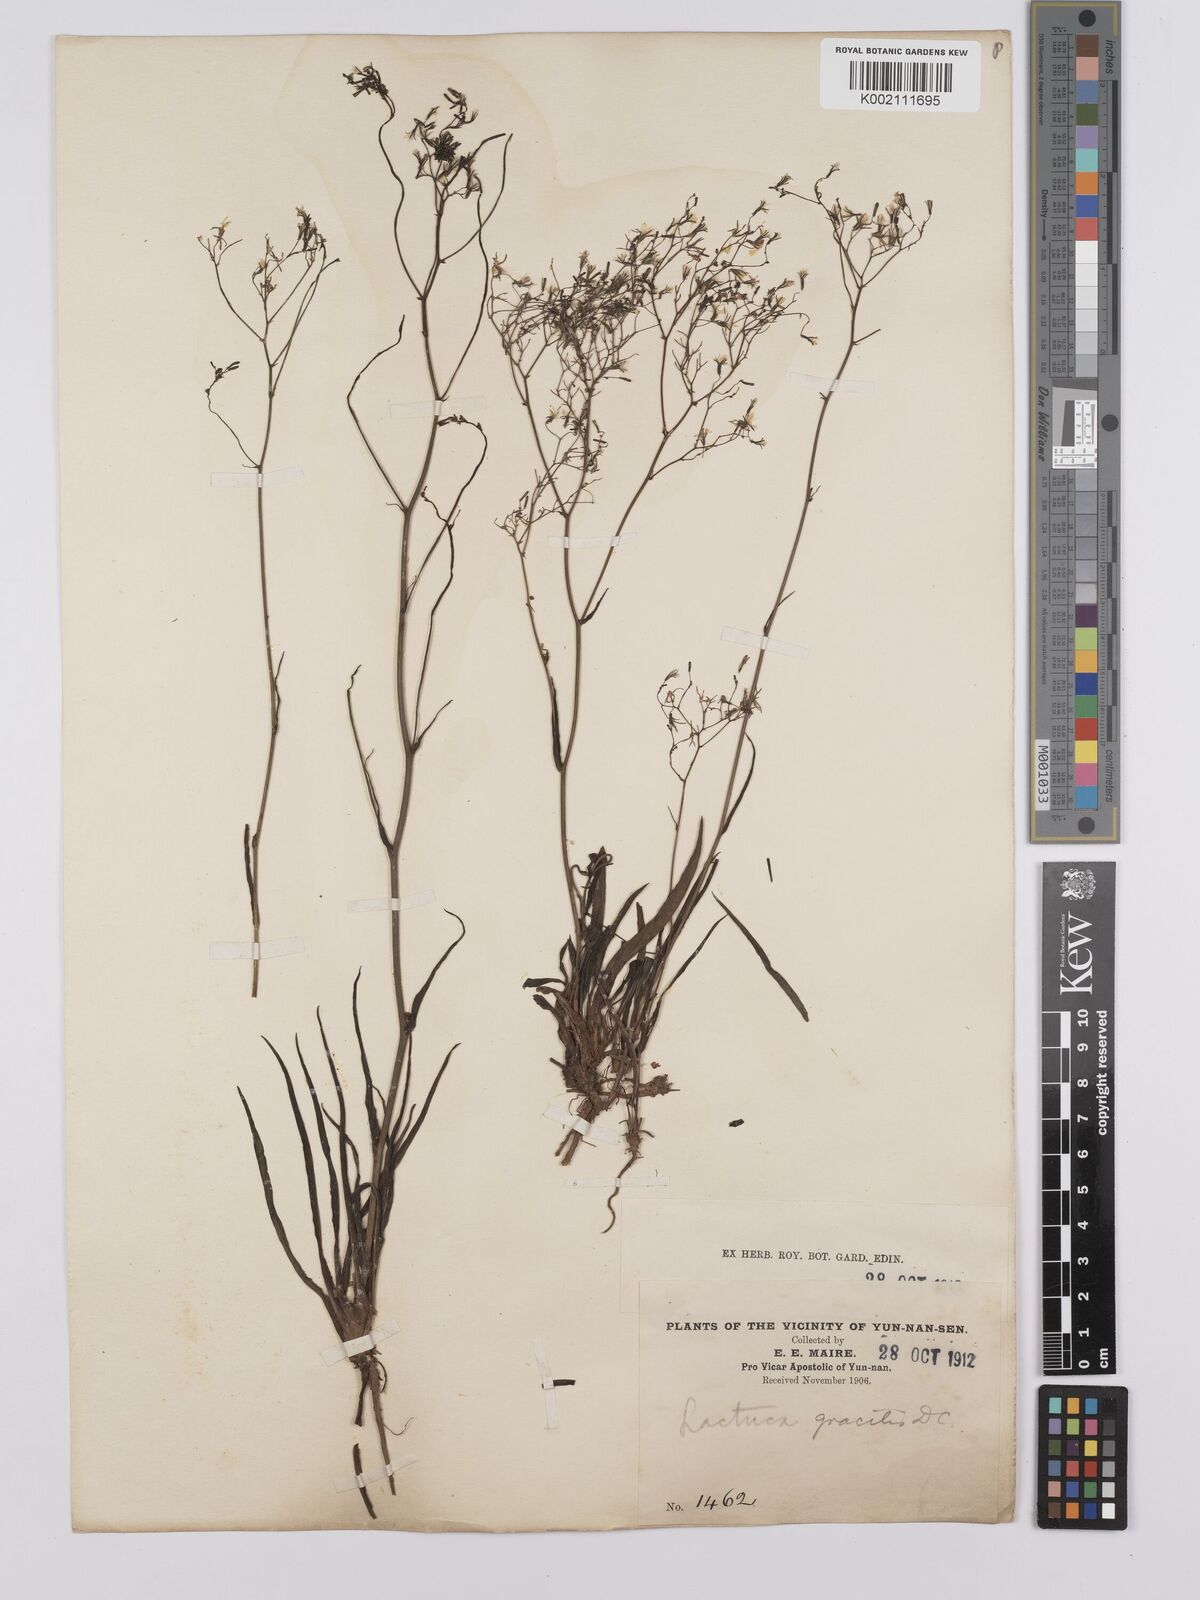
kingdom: Plantae
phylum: Tracheophyta
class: Magnoliopsida
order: Asterales
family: Asteraceae
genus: Ixeridium
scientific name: Ixeridium
